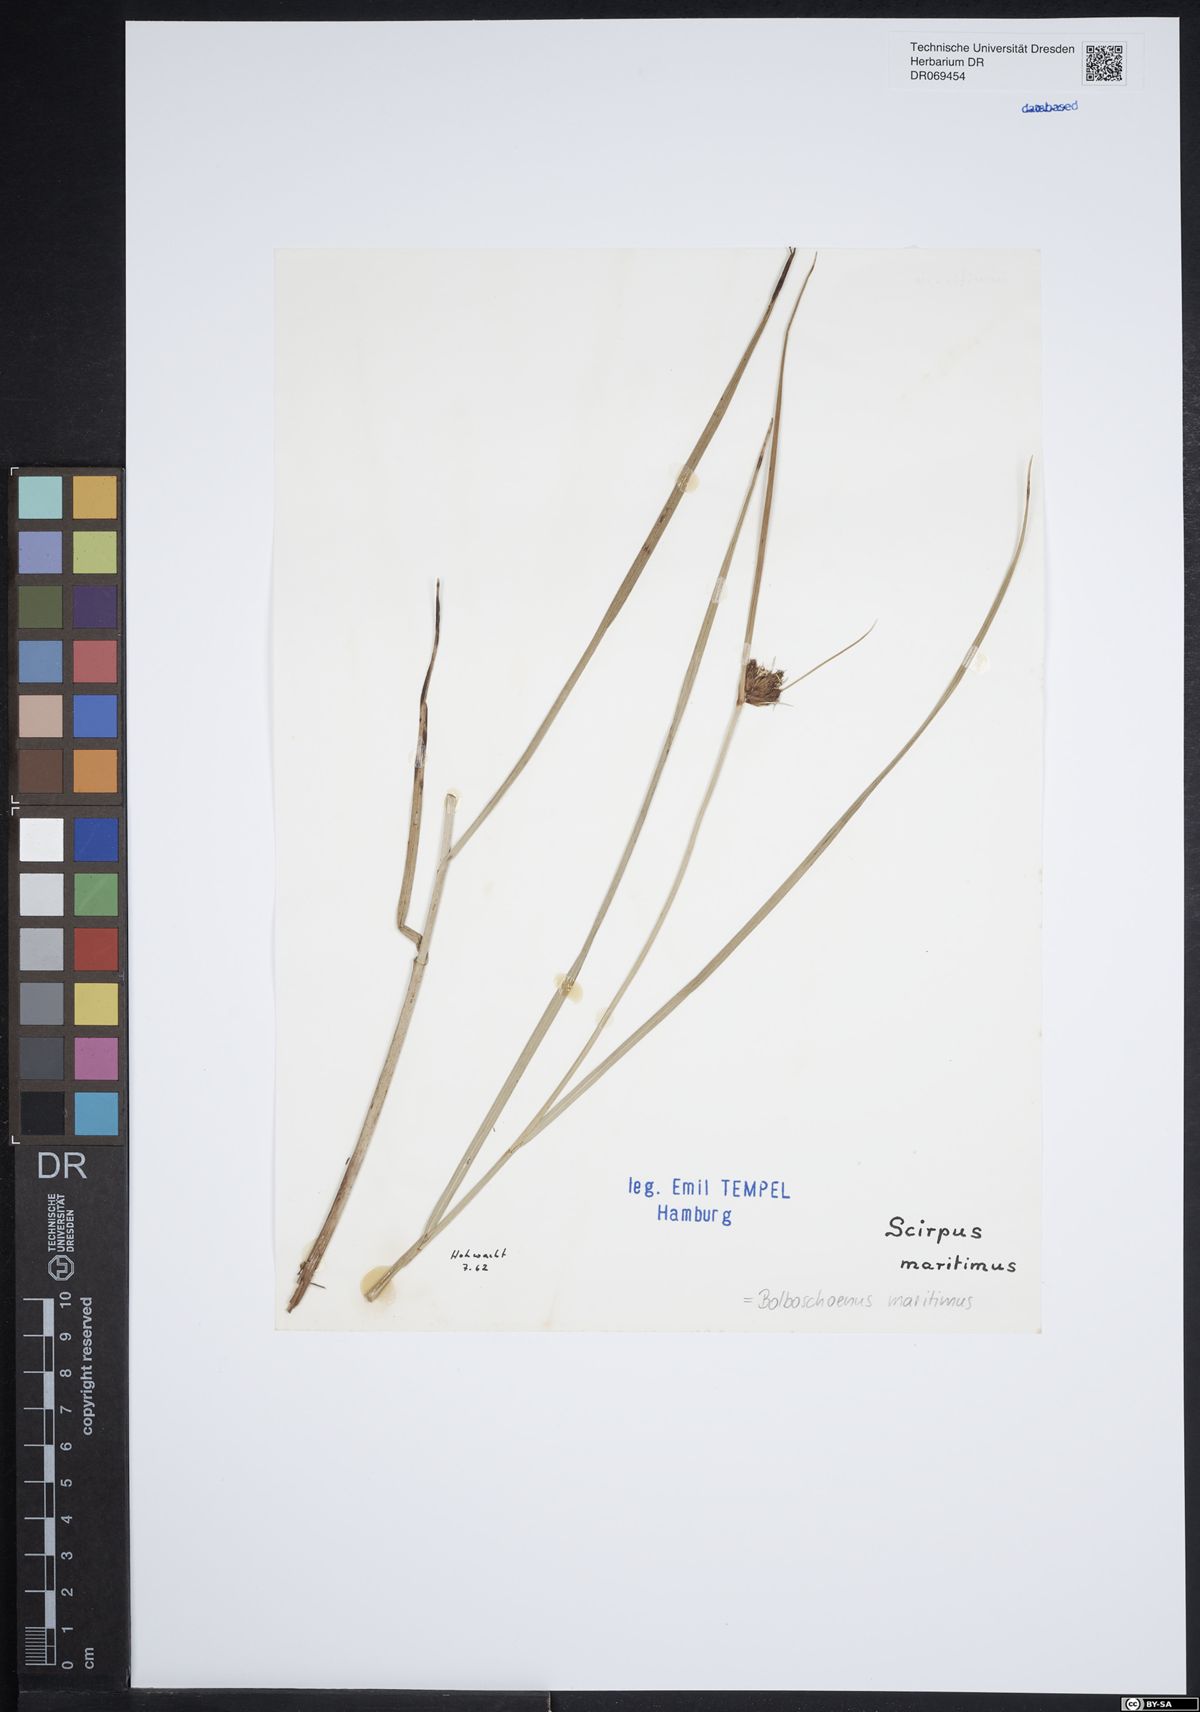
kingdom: Plantae
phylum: Tracheophyta
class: Liliopsida
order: Poales
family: Cyperaceae
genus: Bolboschoenus
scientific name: Bolboschoenus maritimus
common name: Sea club-rush
